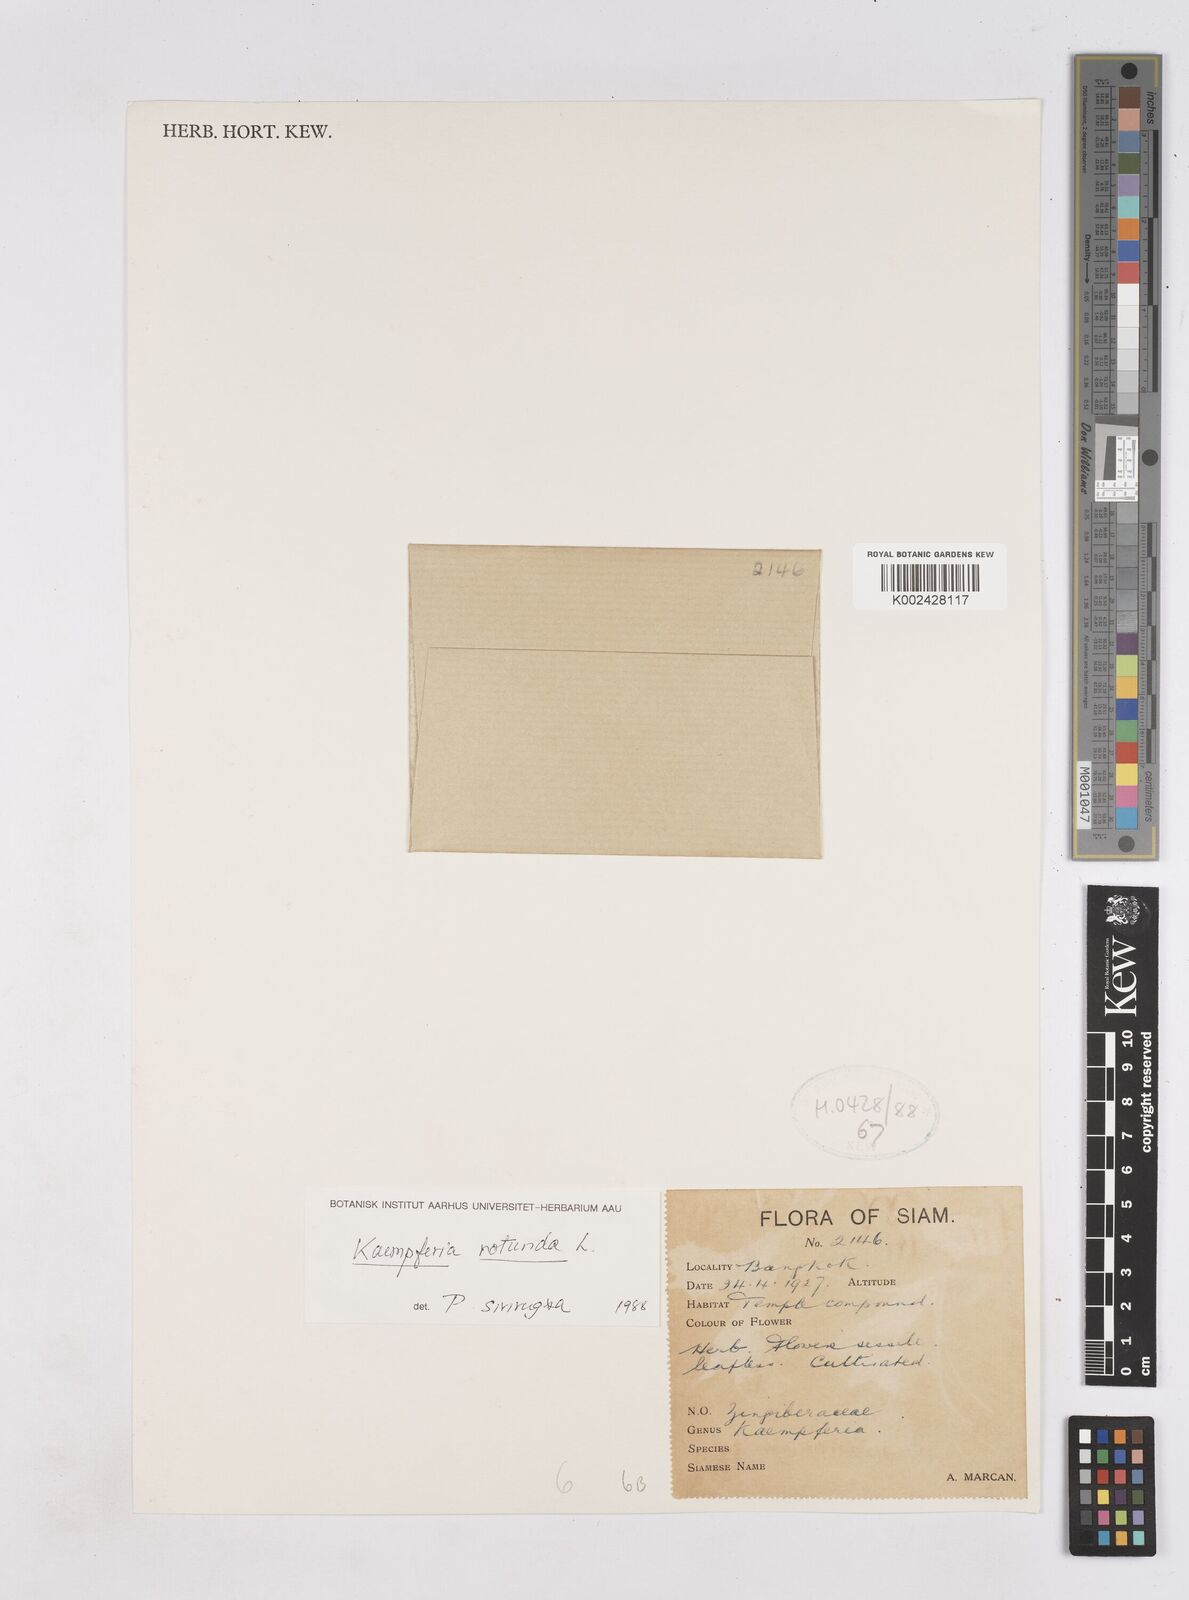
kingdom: Plantae
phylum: Tracheophyta
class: Liliopsida
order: Zingiberales
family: Zingiberaceae
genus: Kaempferia
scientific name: Kaempferia rotunda
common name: Tropical-crocus
